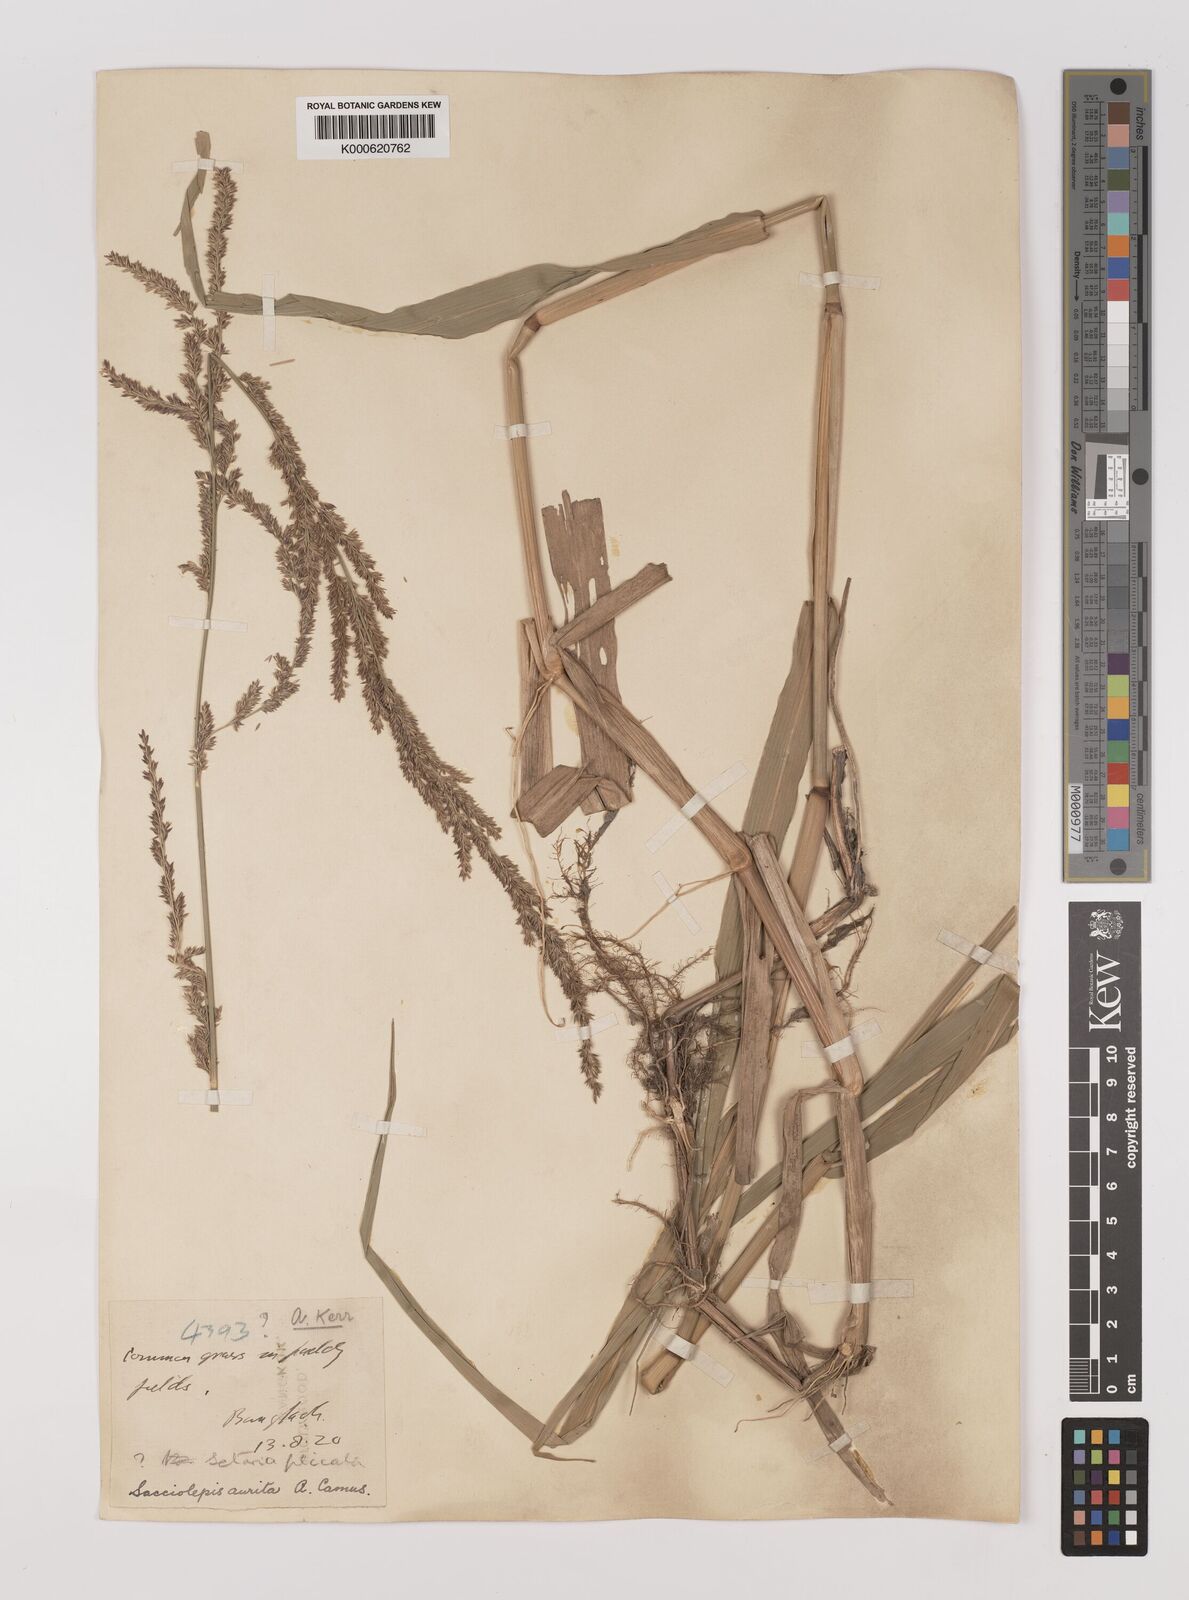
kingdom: Plantae
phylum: Tracheophyta
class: Liliopsida
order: Poales
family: Poaceae
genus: Hymenachne
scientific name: Hymenachne aurita
